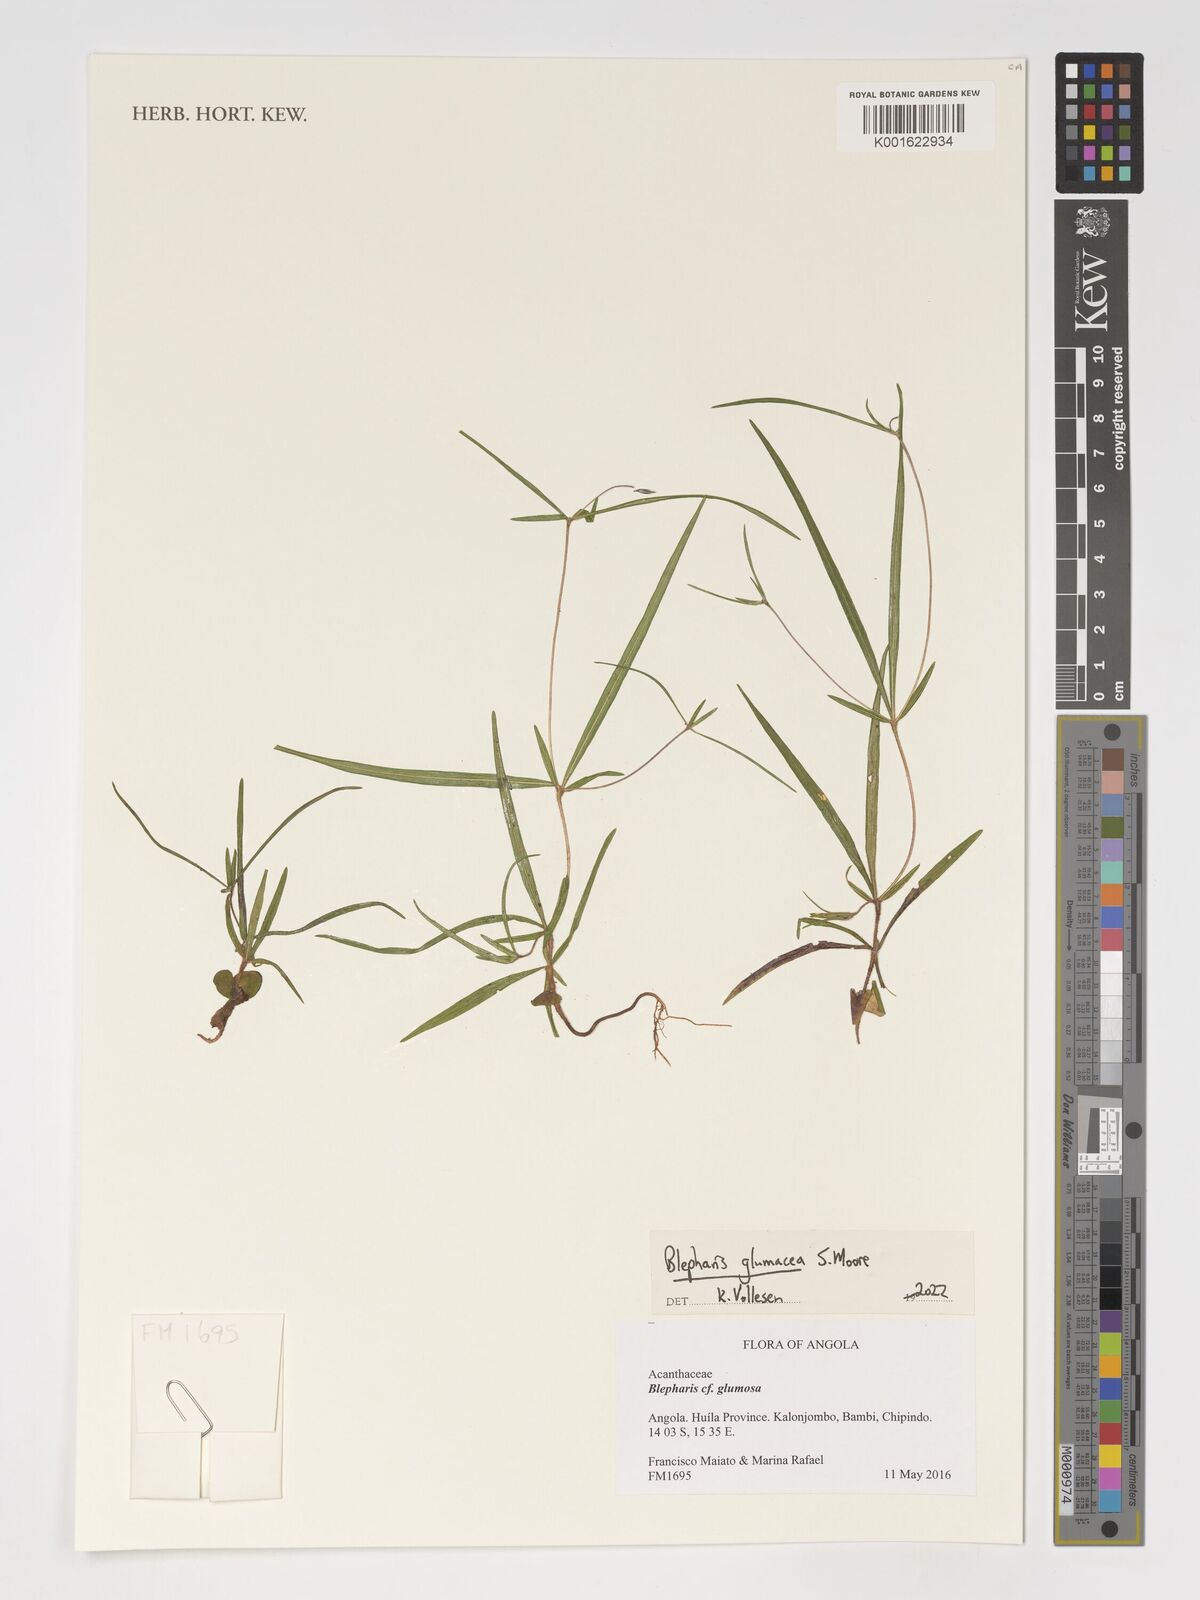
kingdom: Plantae
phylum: Tracheophyta
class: Magnoliopsida
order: Lamiales
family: Acanthaceae
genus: Blepharis
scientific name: Blepharis glumacea
